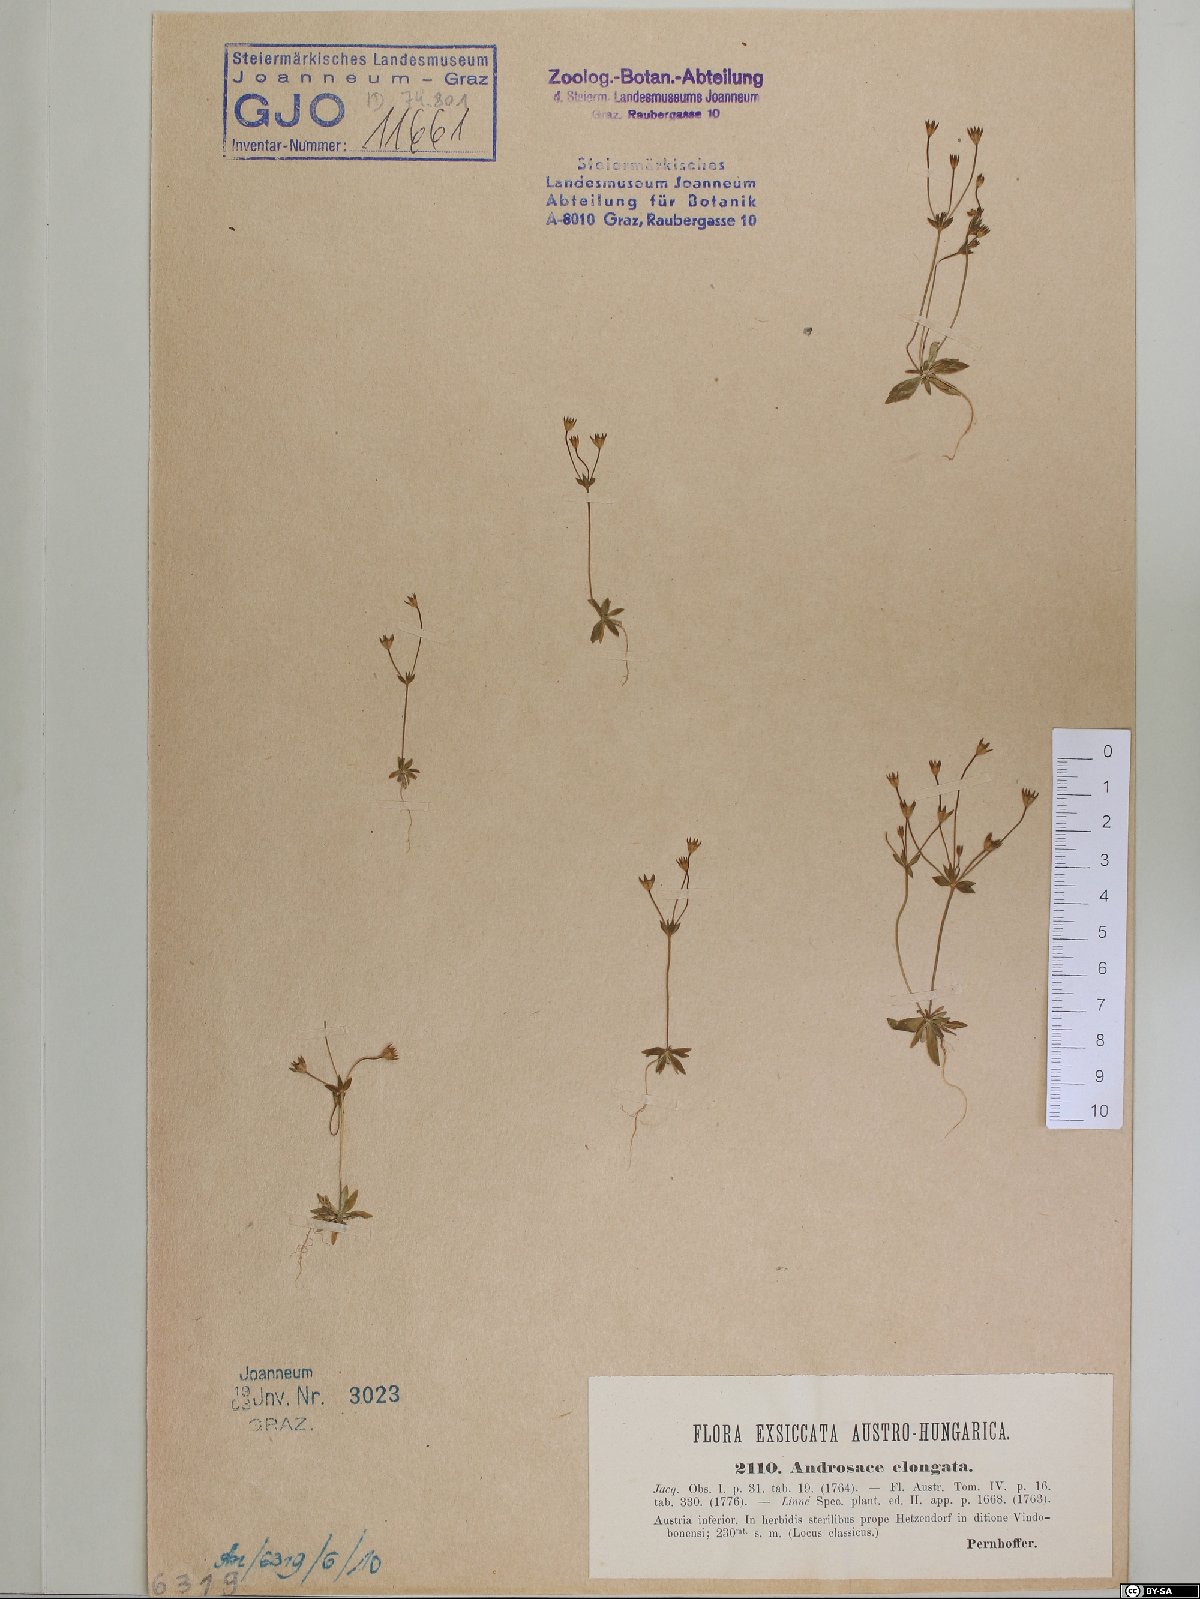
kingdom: Plantae
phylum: Tracheophyta
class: Magnoliopsida
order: Ericales
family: Primulaceae
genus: Androsace
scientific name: Androsace elongata
